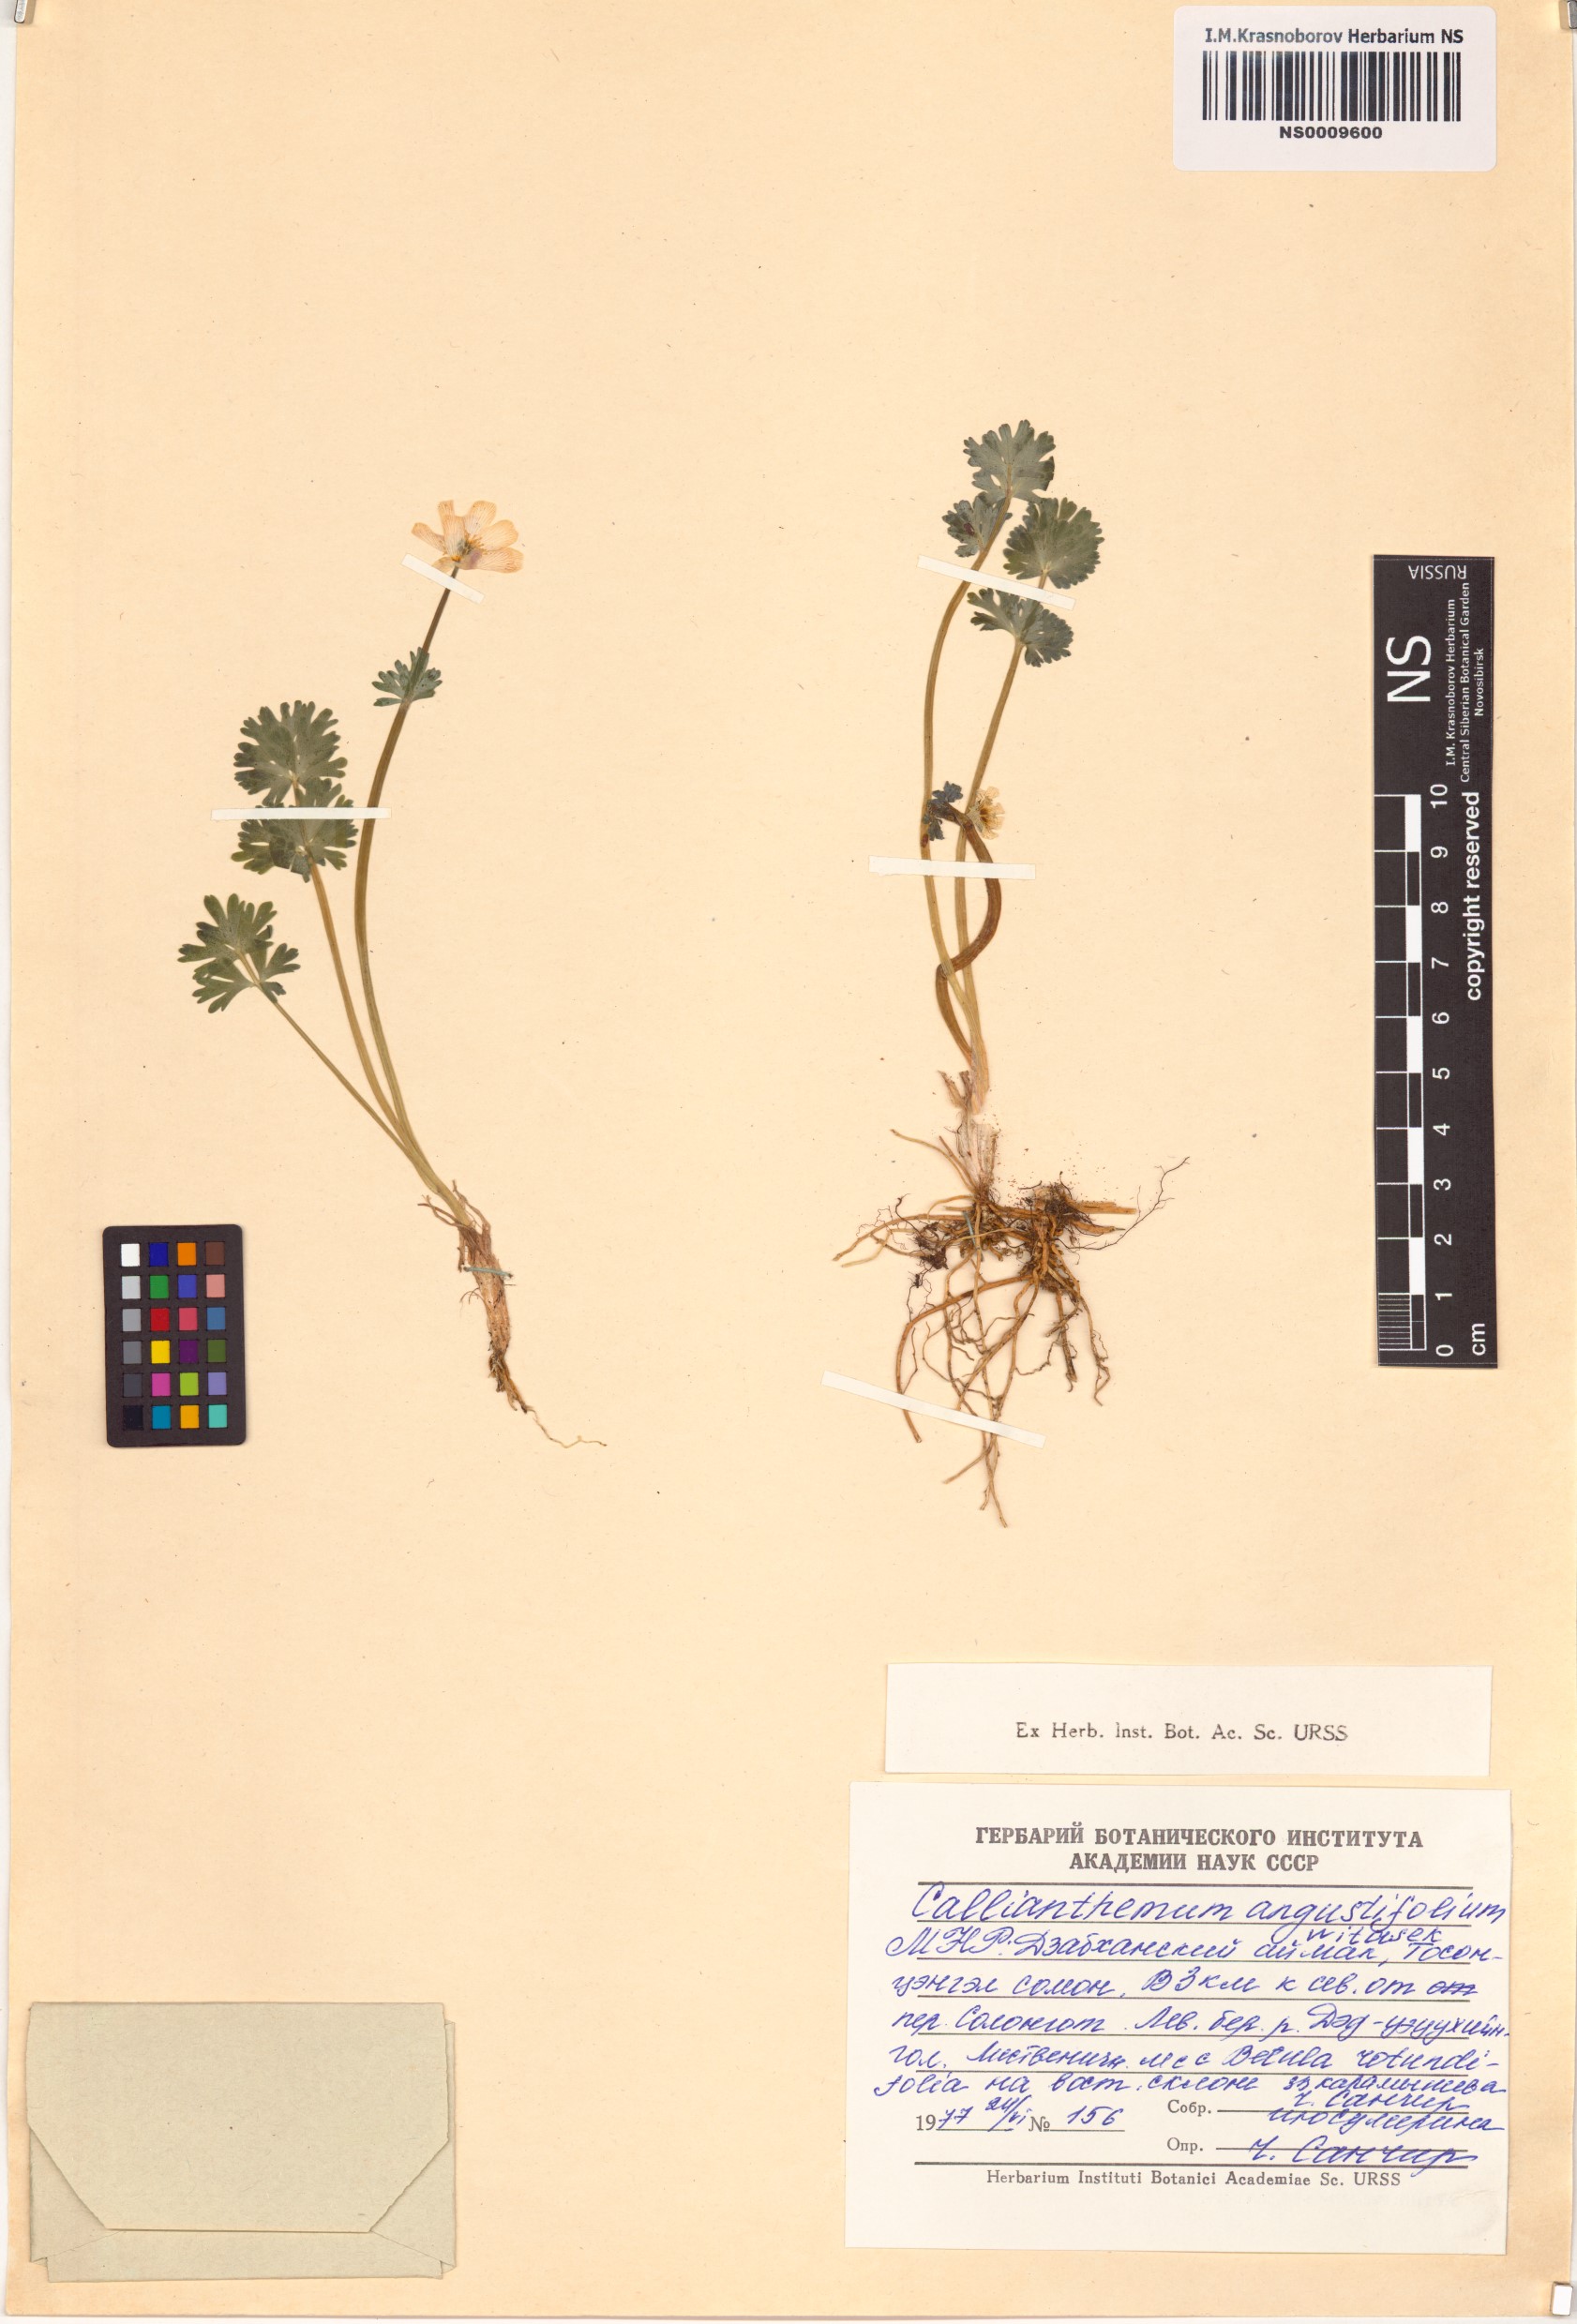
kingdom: Plantae
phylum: Tracheophyta
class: Magnoliopsida
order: Ranunculales
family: Ranunculaceae
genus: Callianthemum
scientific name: Callianthemum angustifolium
